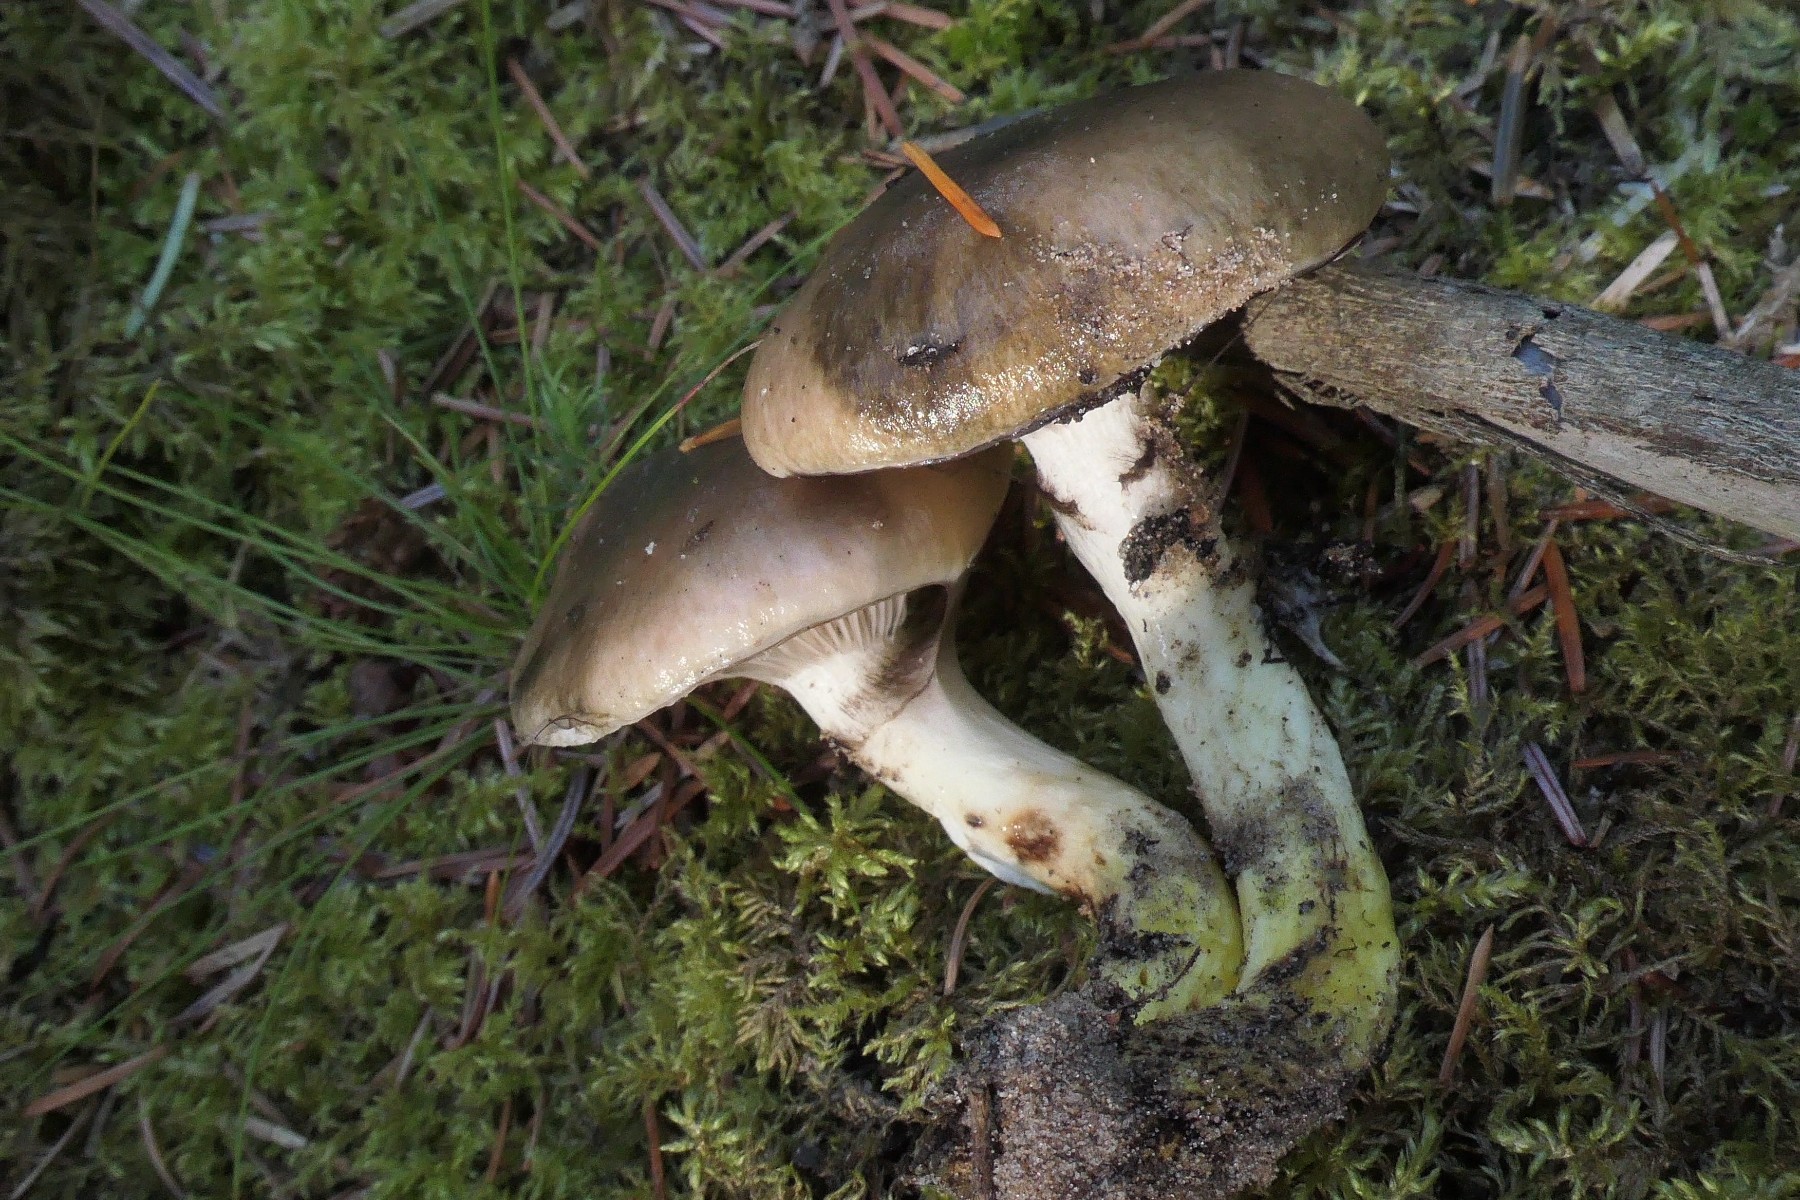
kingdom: Fungi
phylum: Basidiomycota
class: Agaricomycetes
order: Boletales
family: Gomphidiaceae
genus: Gomphidius
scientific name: Gomphidius glutinosus
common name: grå slimslør
